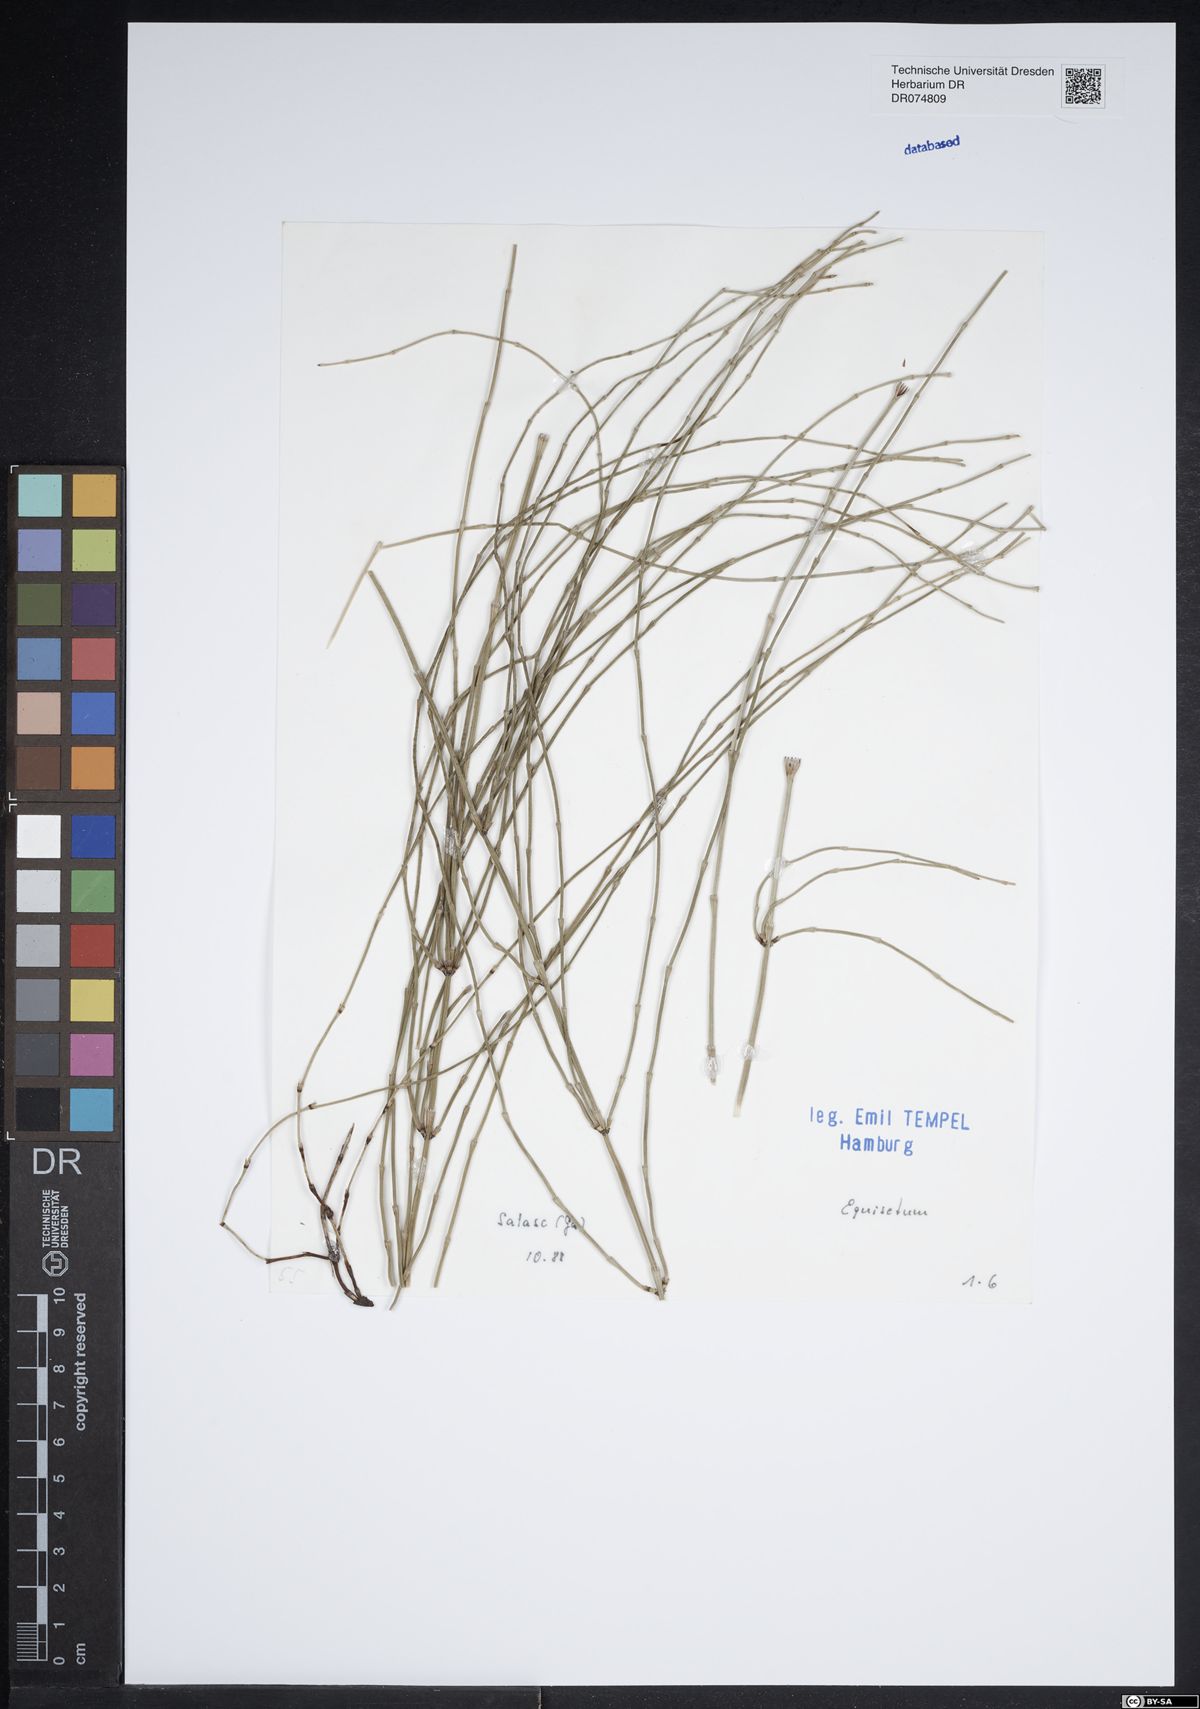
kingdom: Plantae
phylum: Tracheophyta
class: Polypodiopsida
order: Equisetales
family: Equisetaceae
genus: Equisetum
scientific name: Equisetum
